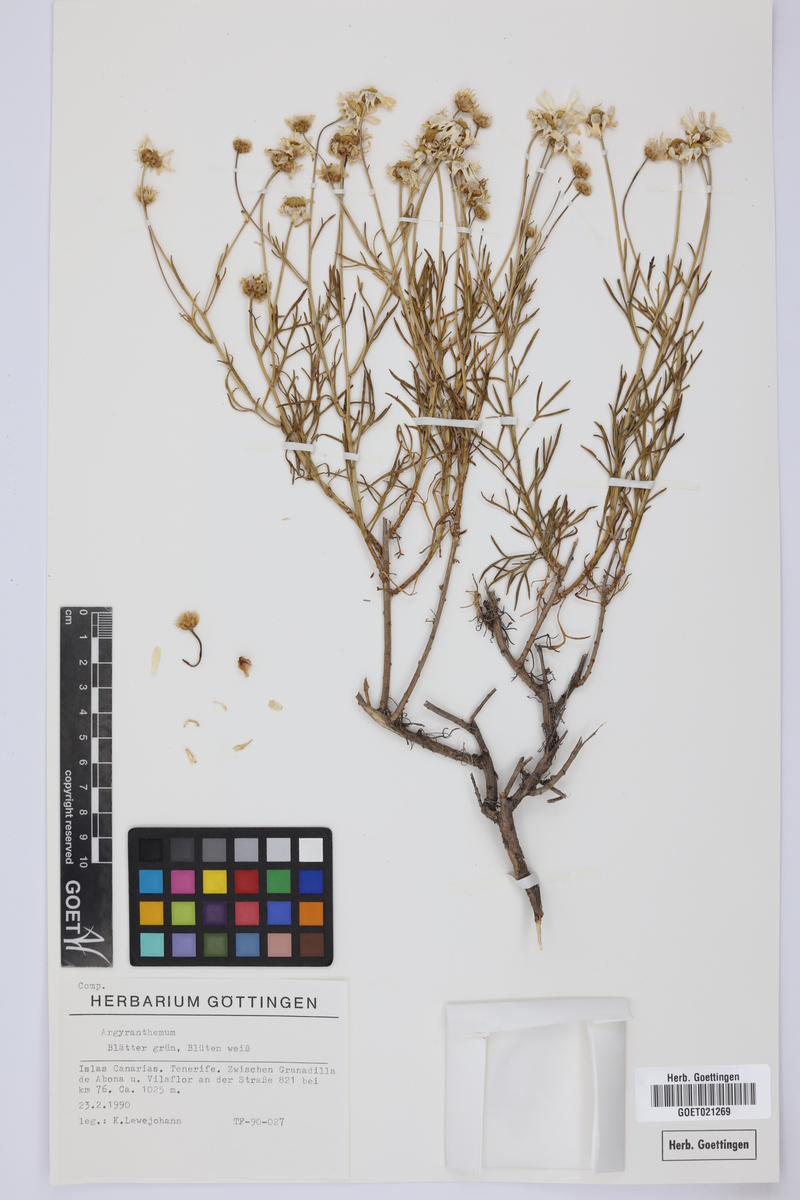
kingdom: Plantae
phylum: Tracheophyta
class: Magnoliopsida
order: Asterales
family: Asteraceae
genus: Argyranthemum
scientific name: Argyranthemum
